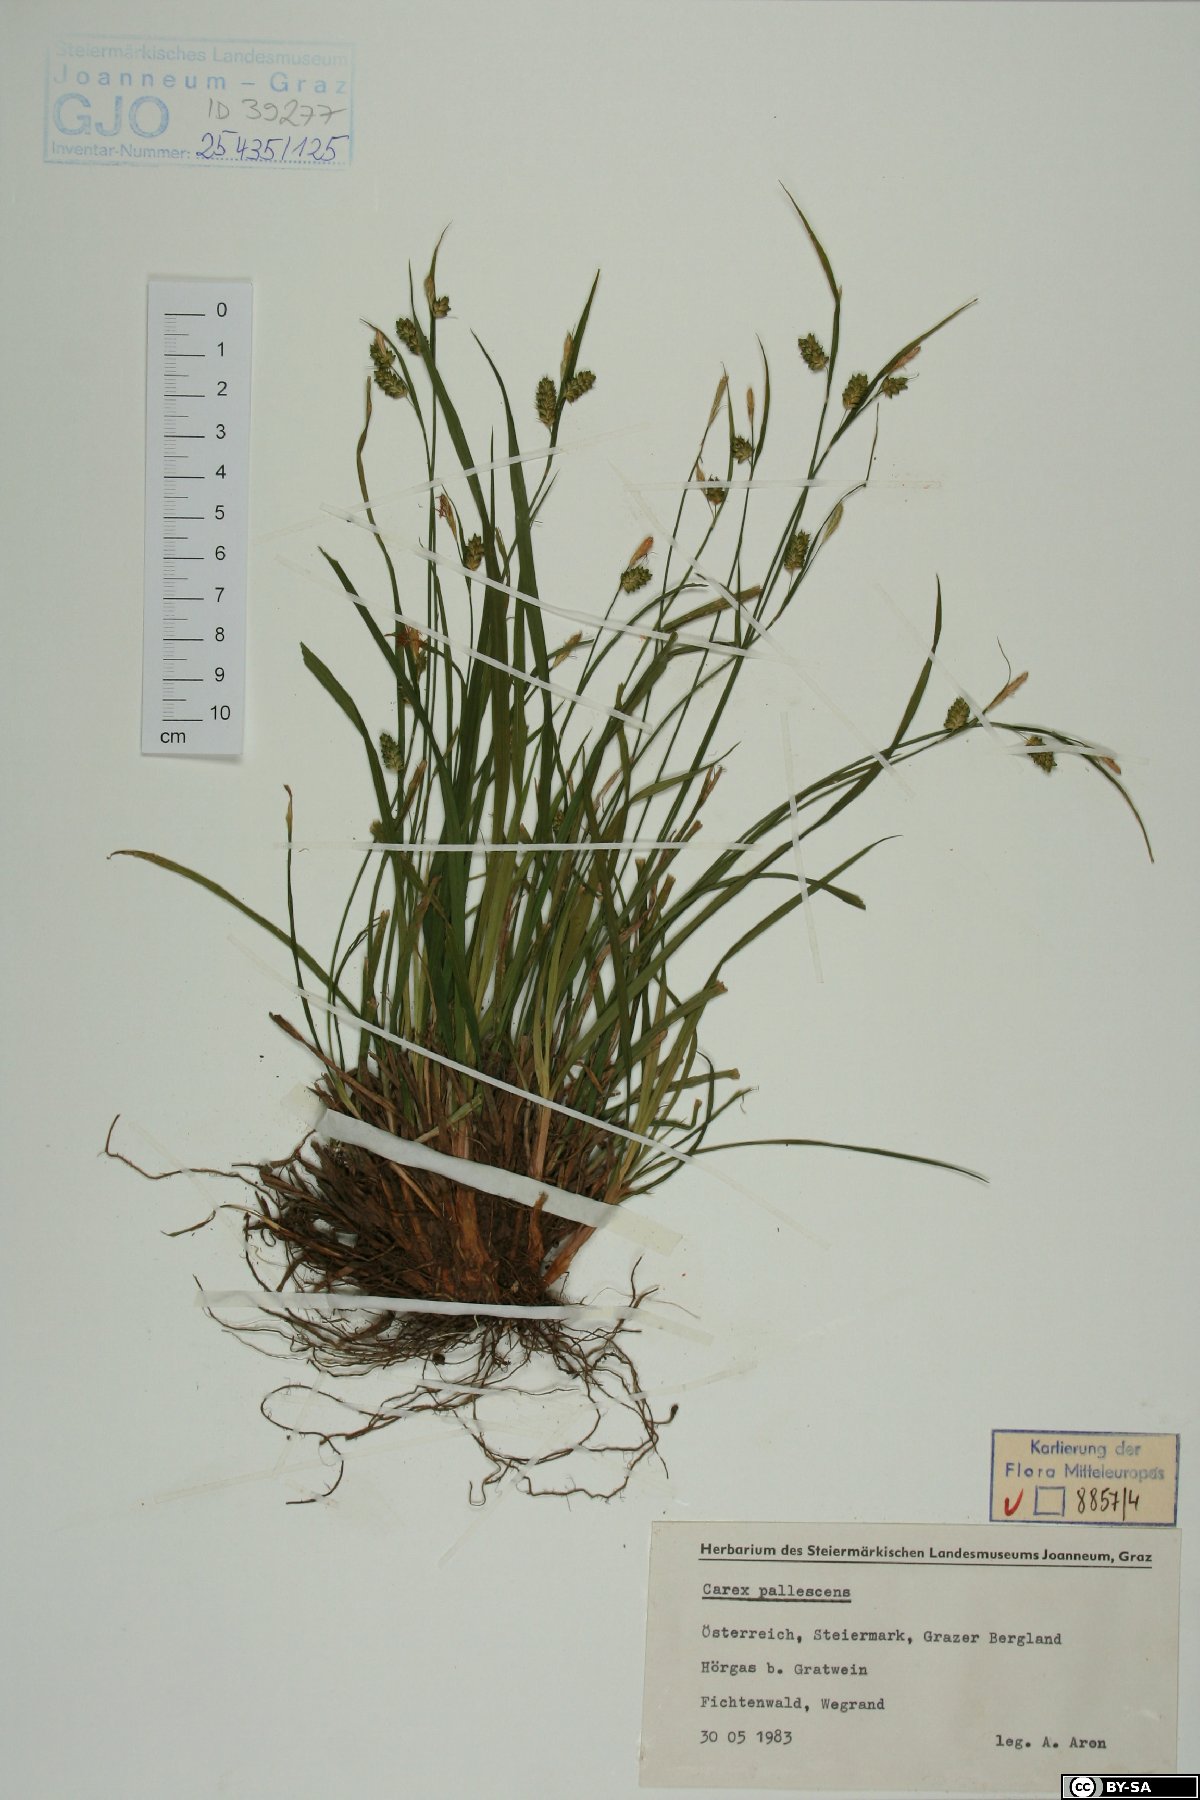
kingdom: Plantae
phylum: Tracheophyta
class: Liliopsida
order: Poales
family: Cyperaceae
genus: Carex
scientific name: Carex pallescens
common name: Pale sedge
